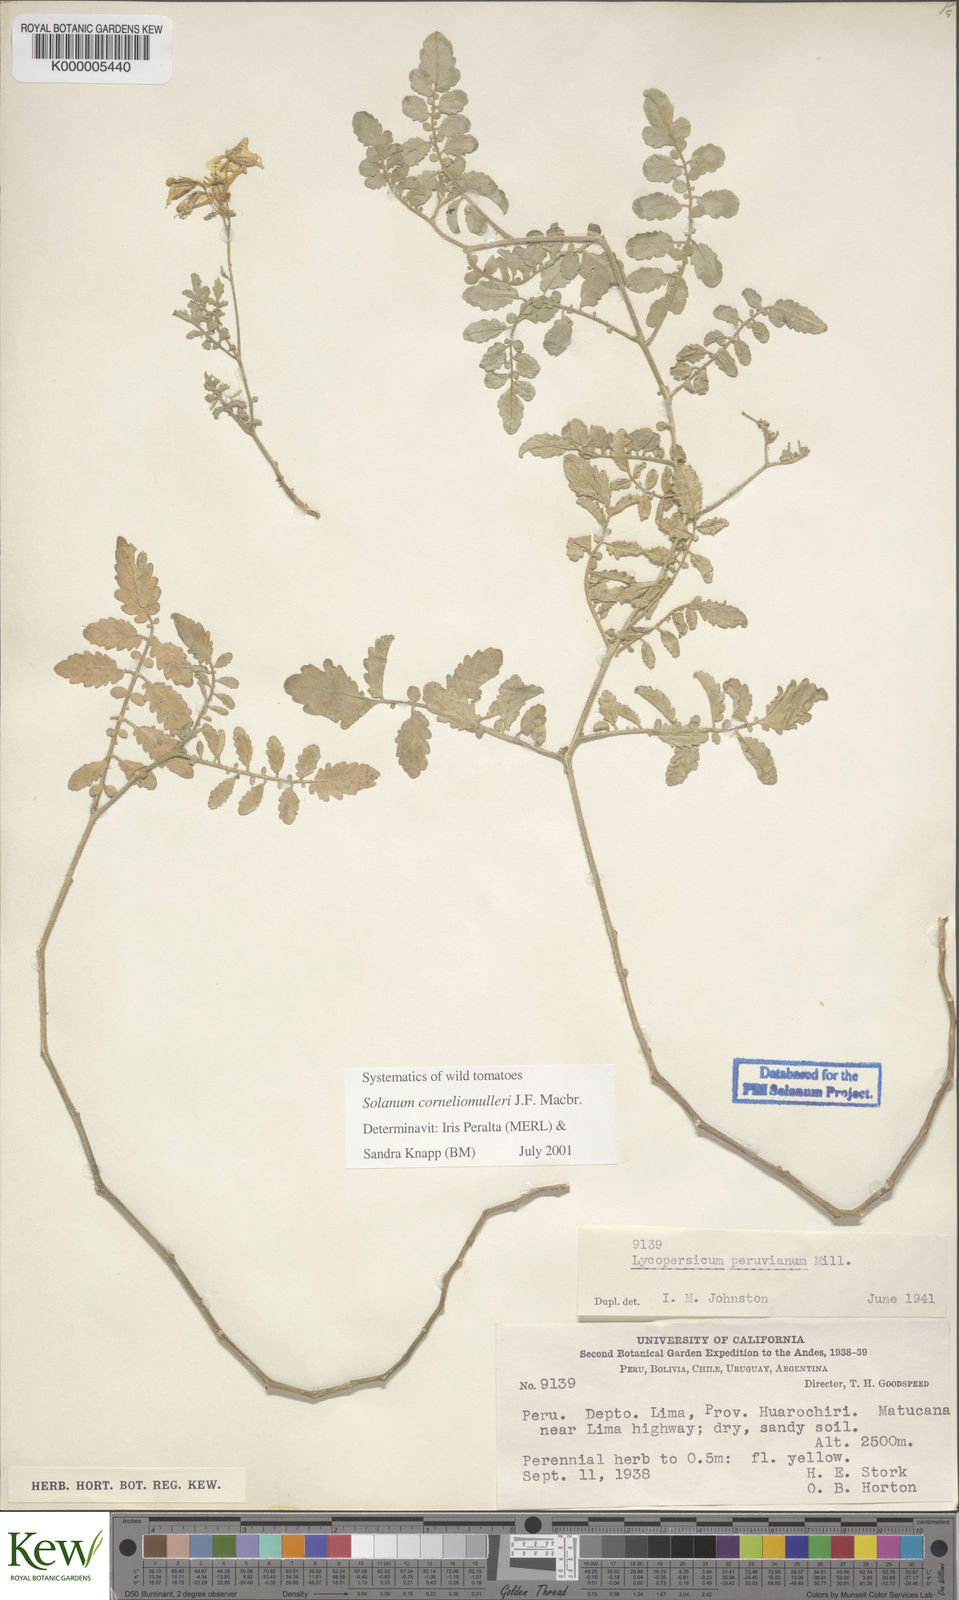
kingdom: Plantae
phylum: Tracheophyta
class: Magnoliopsida
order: Solanales
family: Solanaceae
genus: Solanum
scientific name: Solanum corneliomulleri
